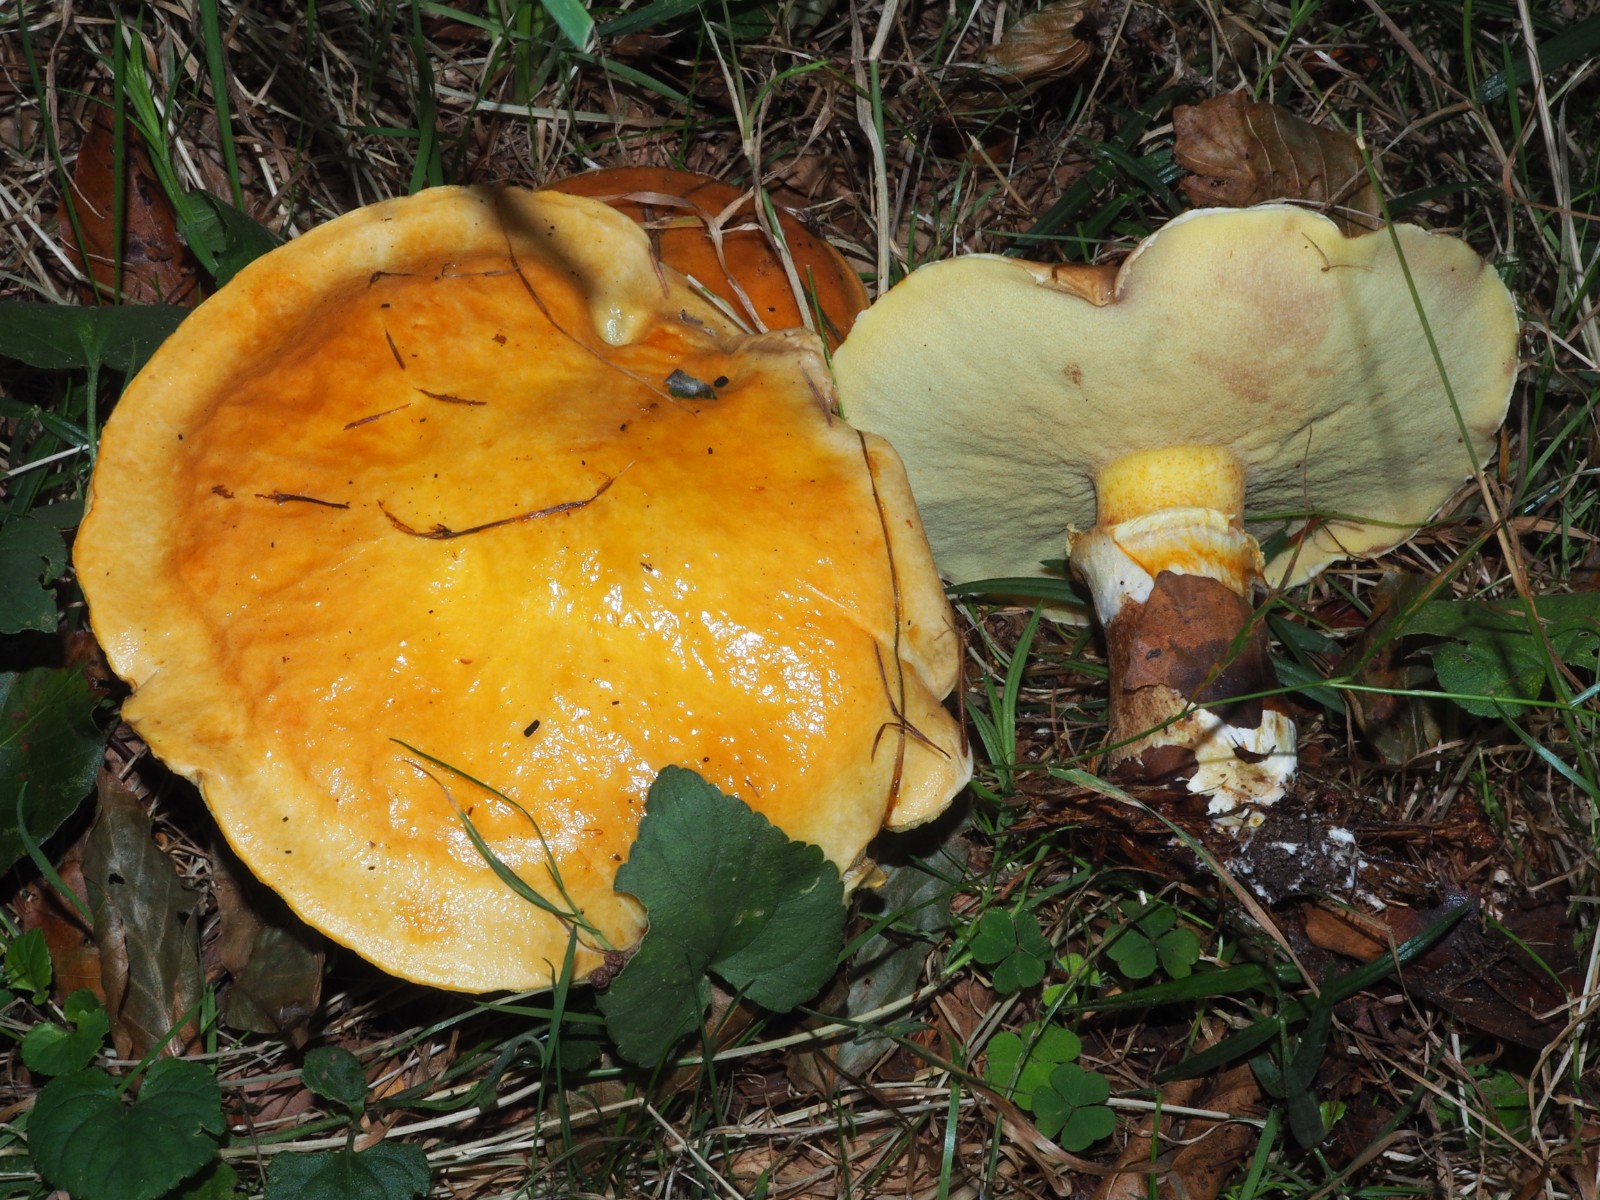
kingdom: Fungi
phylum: Basidiomycota
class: Agaricomycetes
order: Boletales
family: Suillaceae
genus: Suillus
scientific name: Suillus grevillei
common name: lærke-slimrørhat
